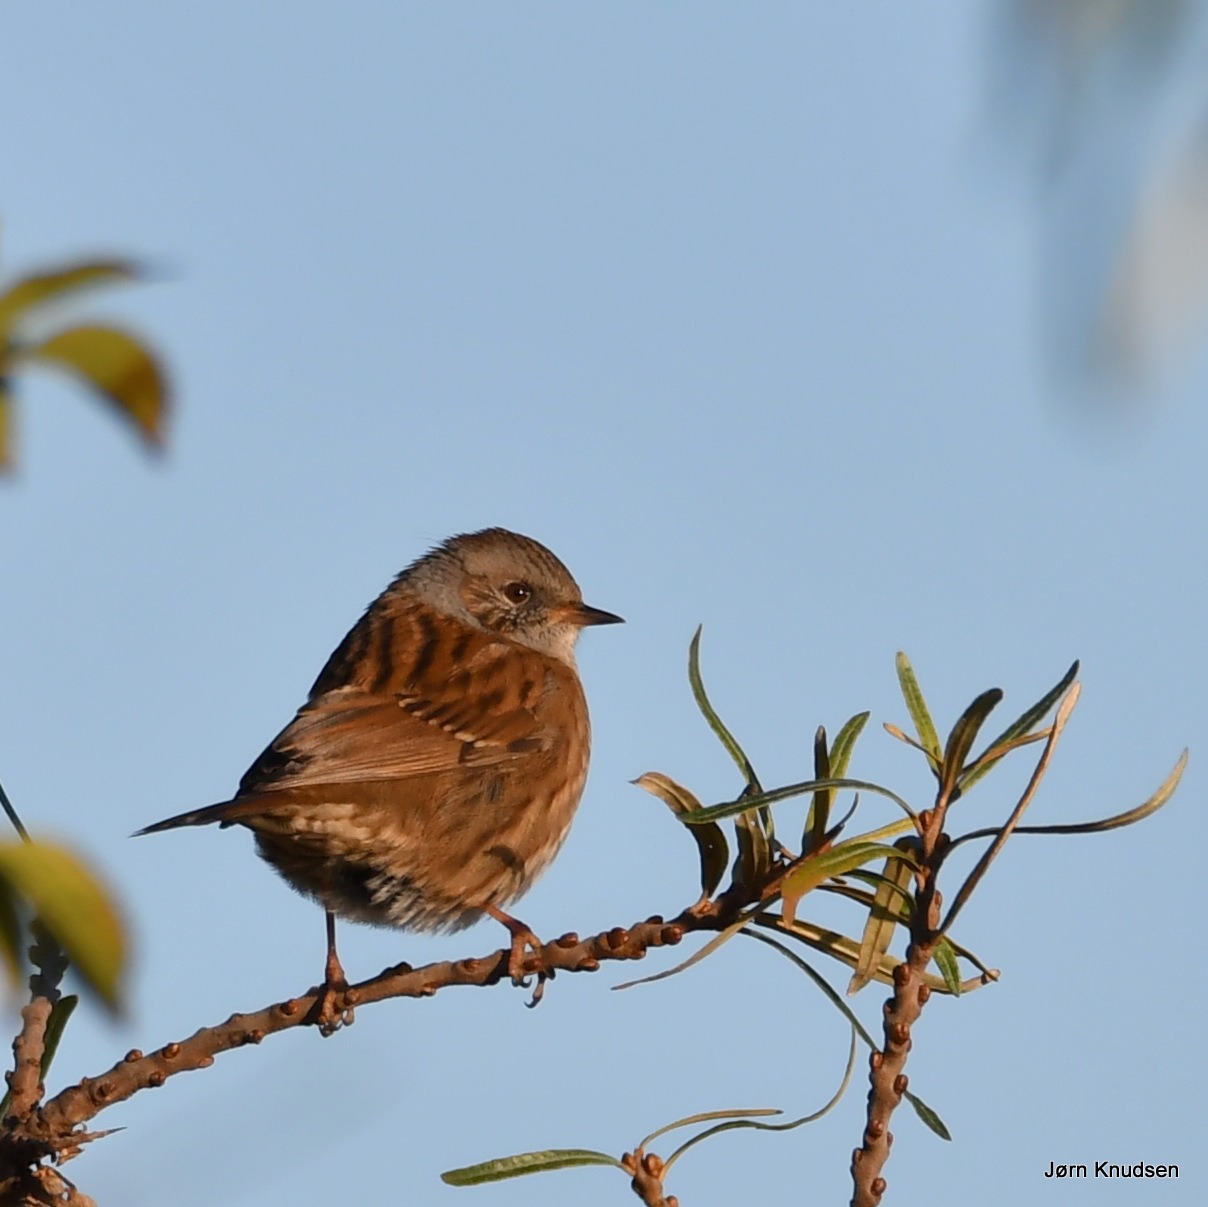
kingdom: Animalia
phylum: Chordata
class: Aves
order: Passeriformes
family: Prunellidae
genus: Prunella
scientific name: Prunella modularis
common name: Jernspurv
